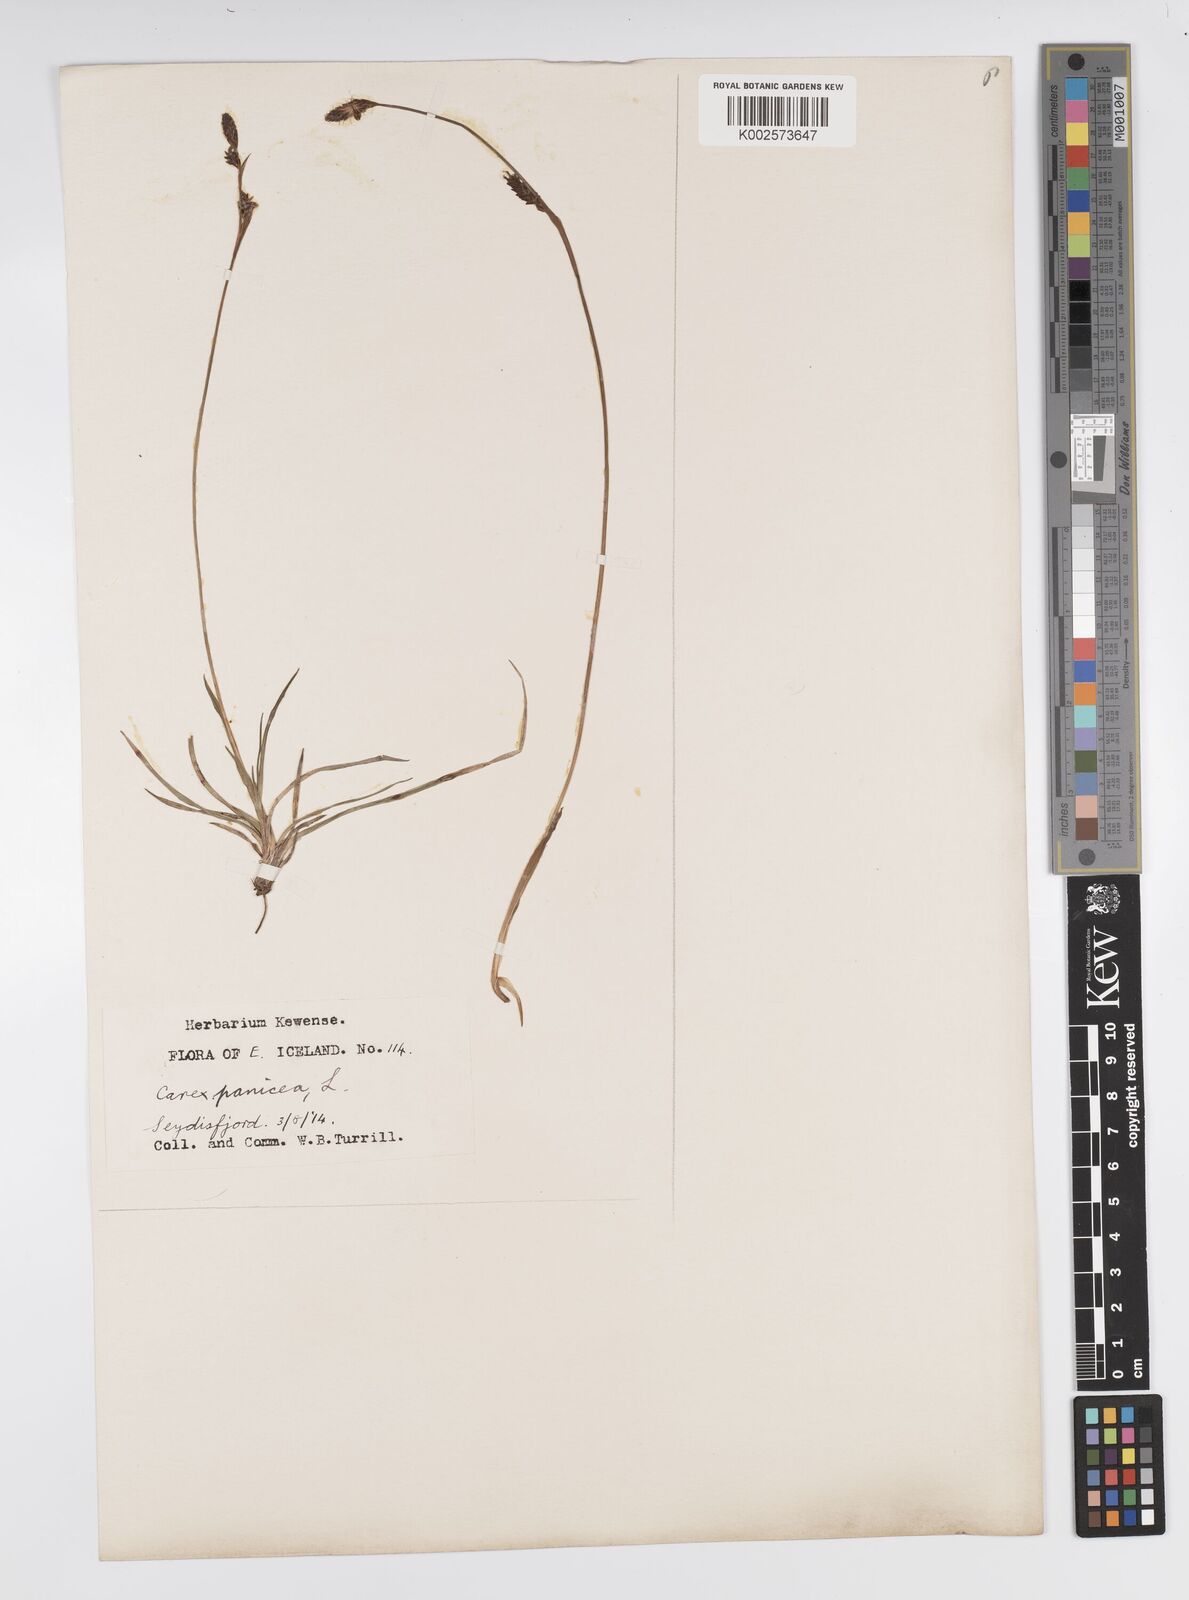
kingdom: Plantae
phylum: Tracheophyta
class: Liliopsida
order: Poales
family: Cyperaceae
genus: Carex
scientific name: Carex panicea
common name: Carnation sedge
